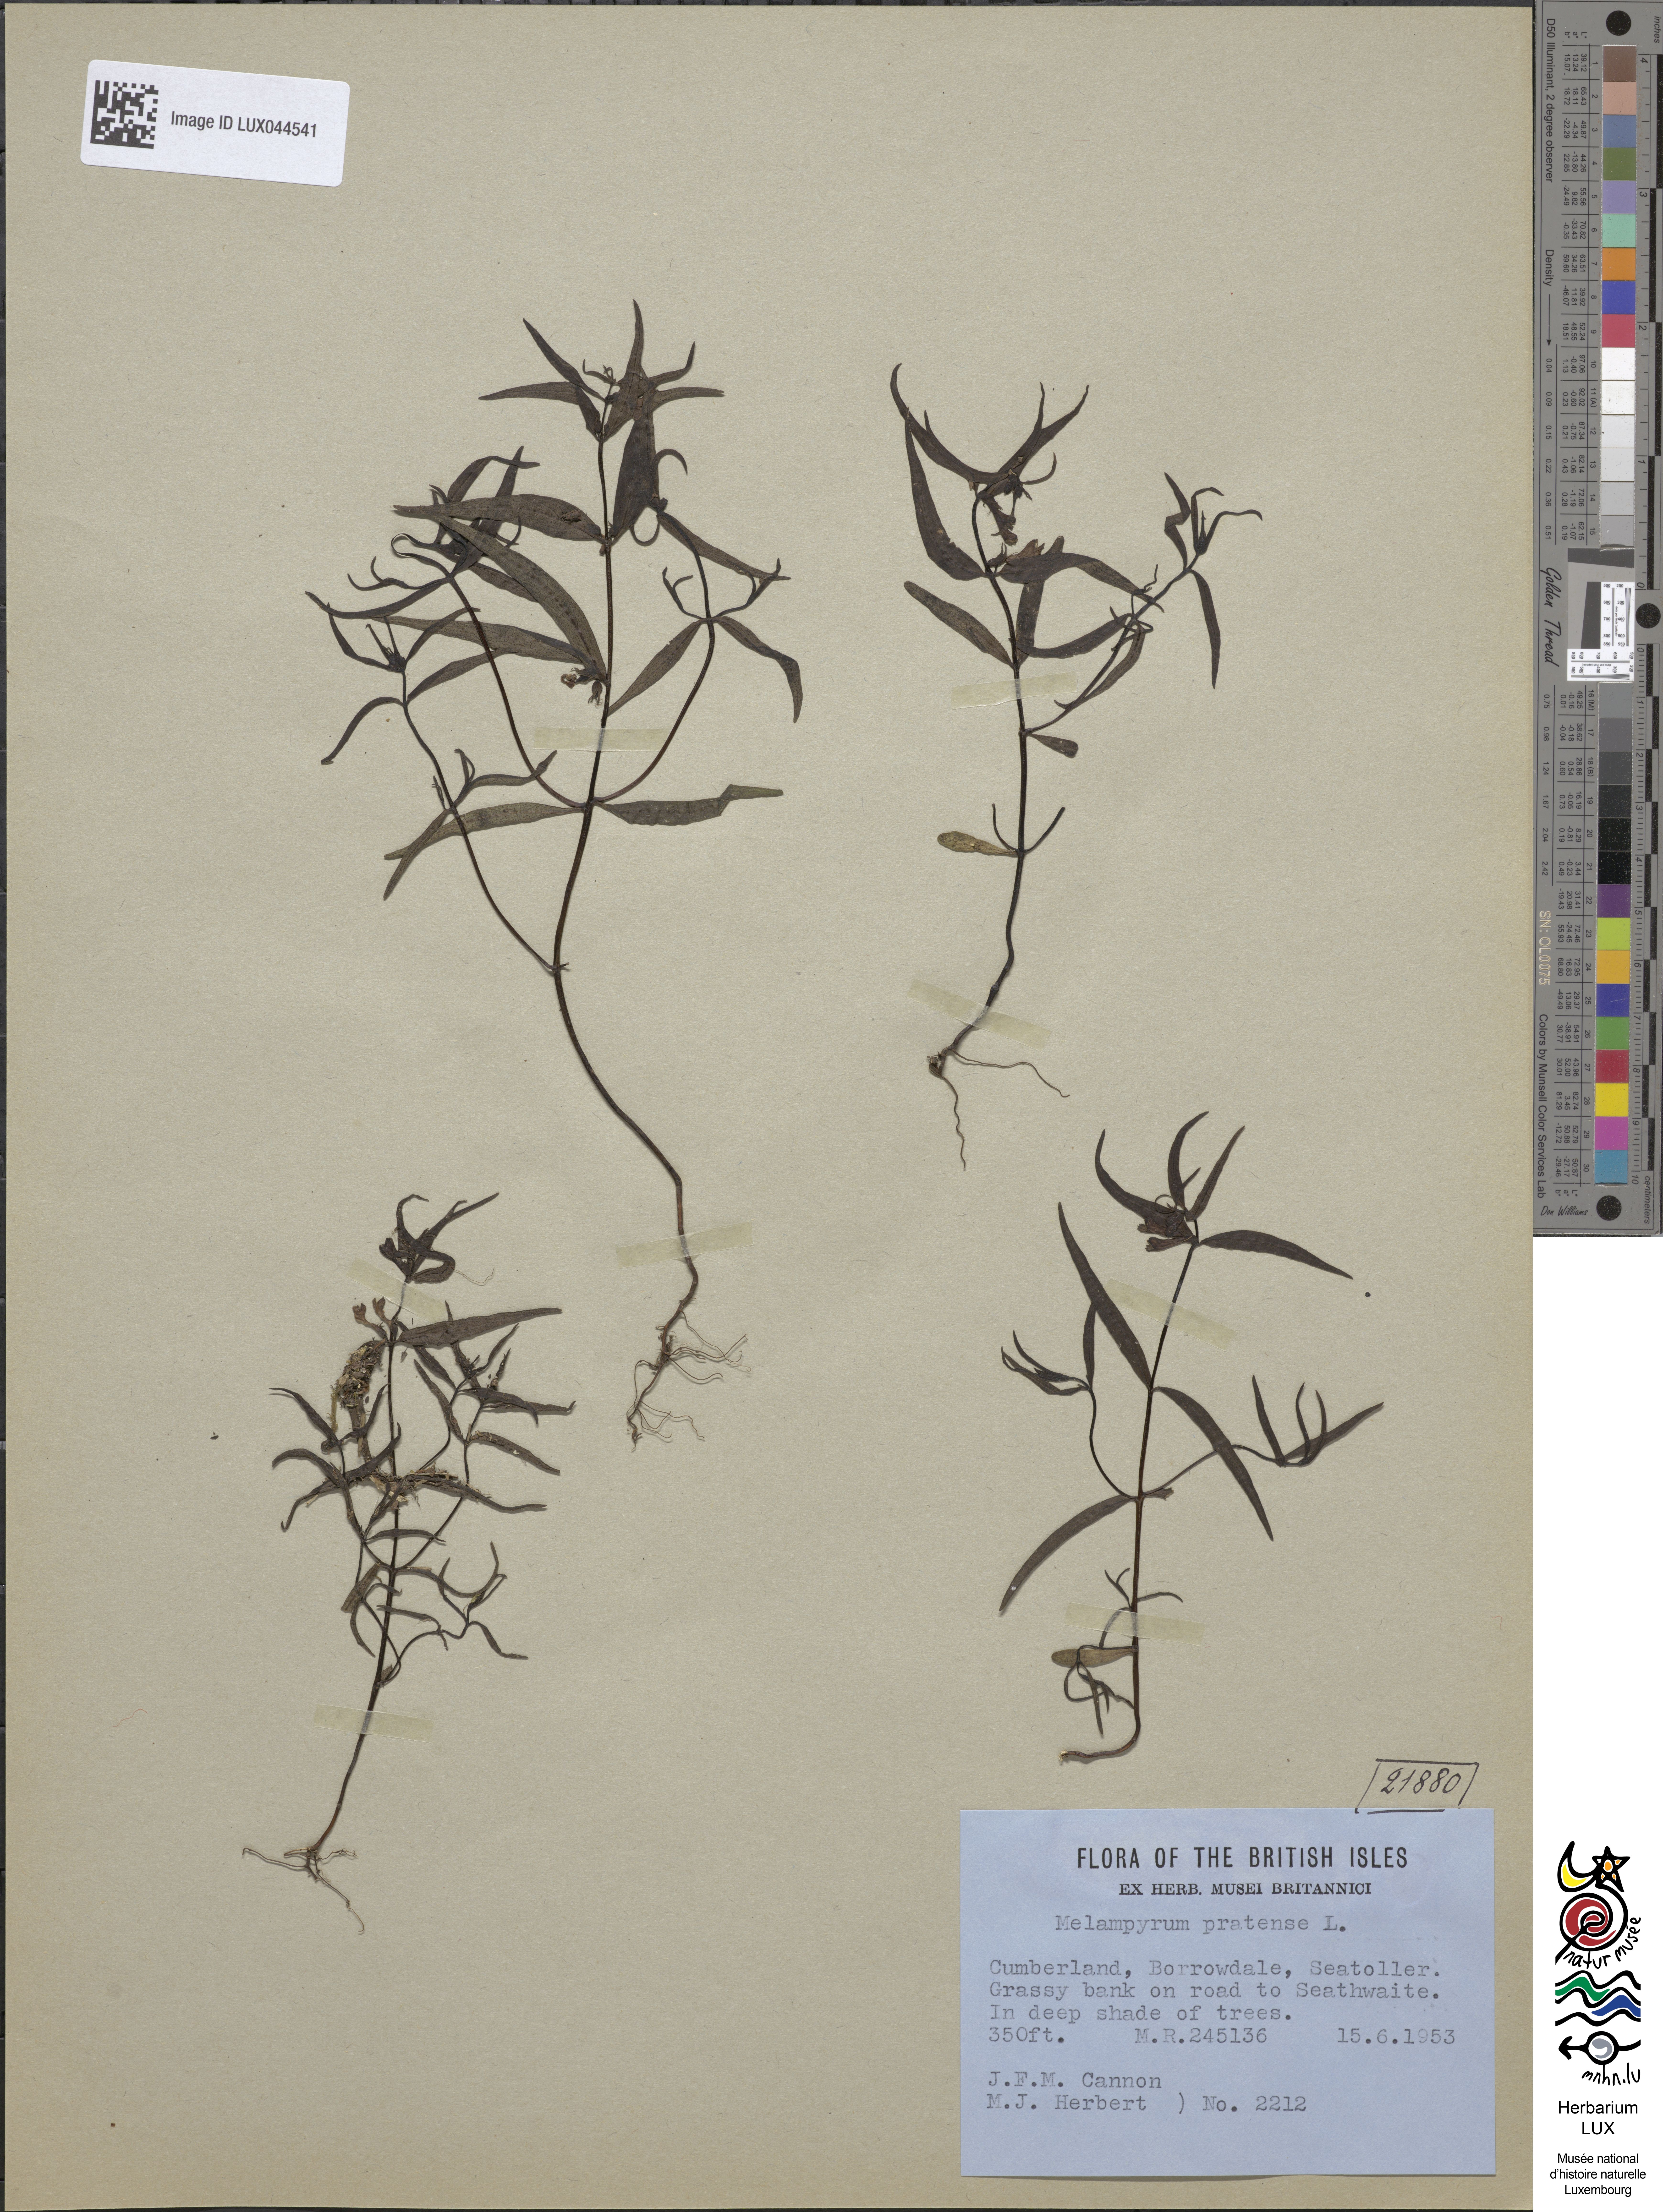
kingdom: Plantae
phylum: Tracheophyta
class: Magnoliopsida
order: Lamiales
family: Orobanchaceae
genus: Melampyrum
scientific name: Melampyrum pratense
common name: Common cow-wheat
